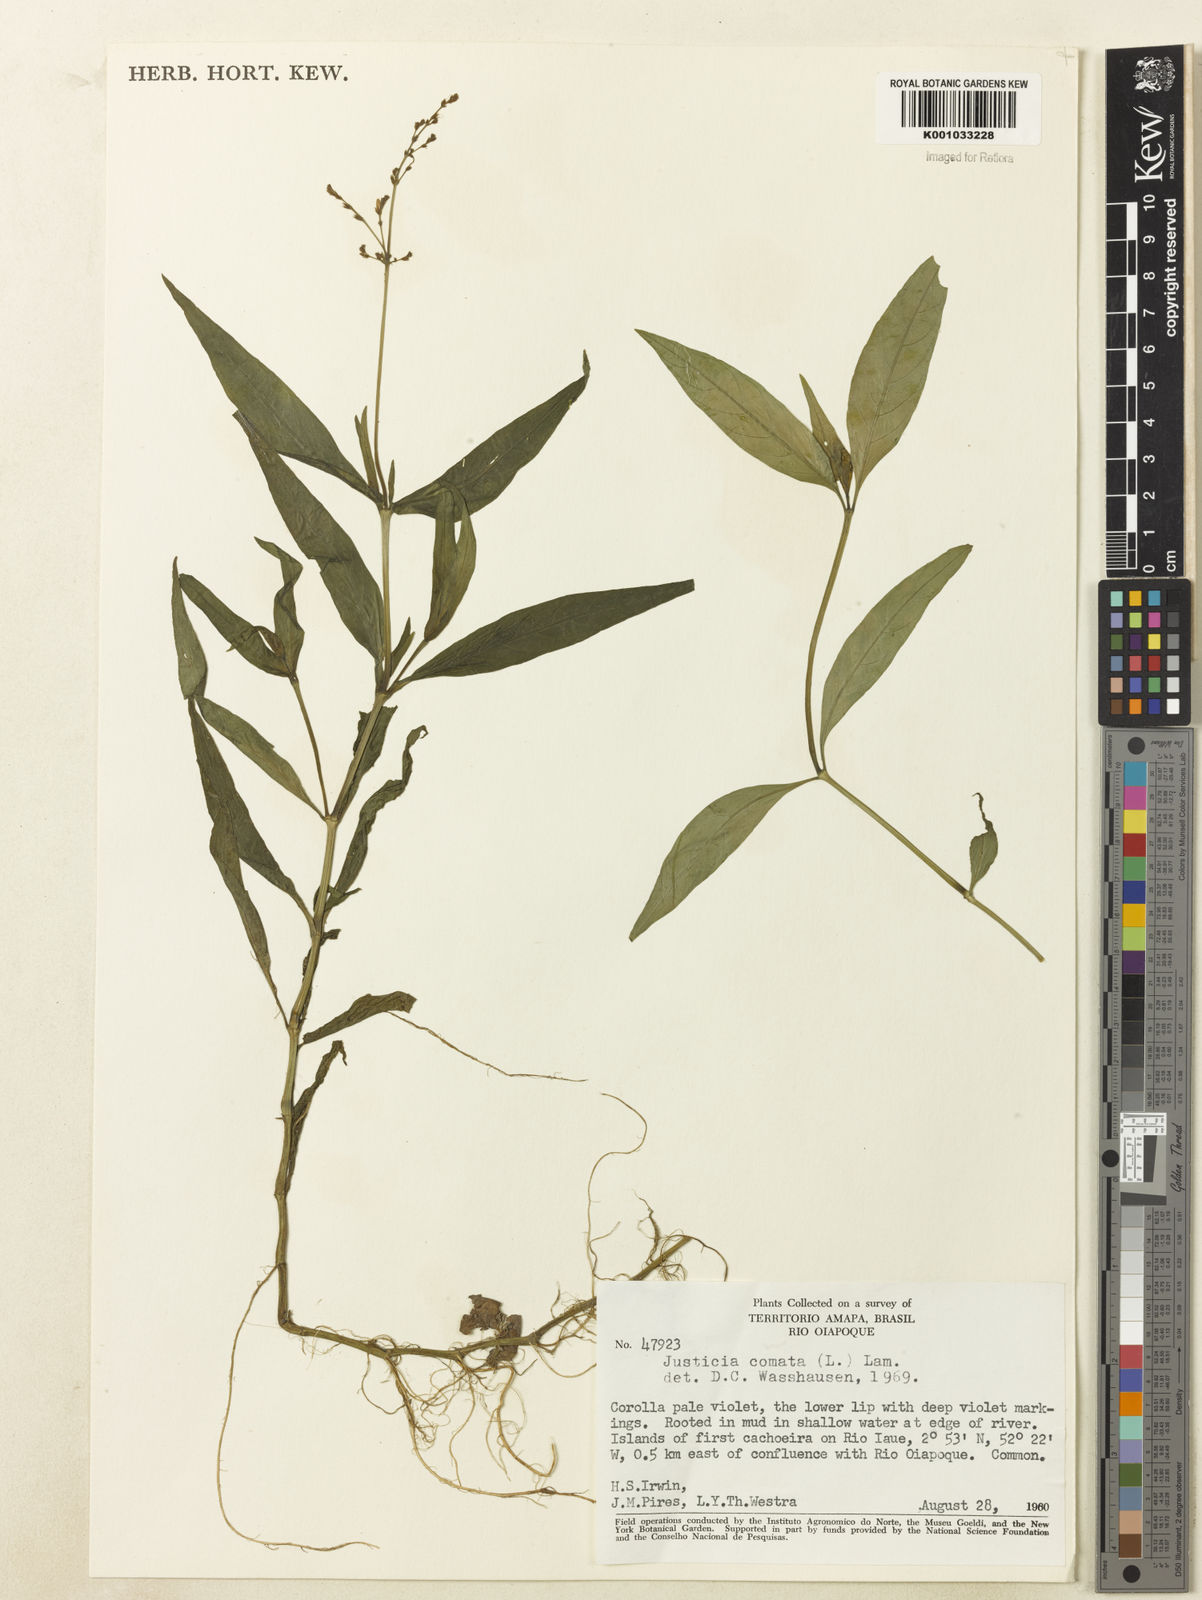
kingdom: Plantae
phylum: Tracheophyta
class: Magnoliopsida
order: Lamiales
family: Acanthaceae
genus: Dianthera
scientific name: Dianthera comata
